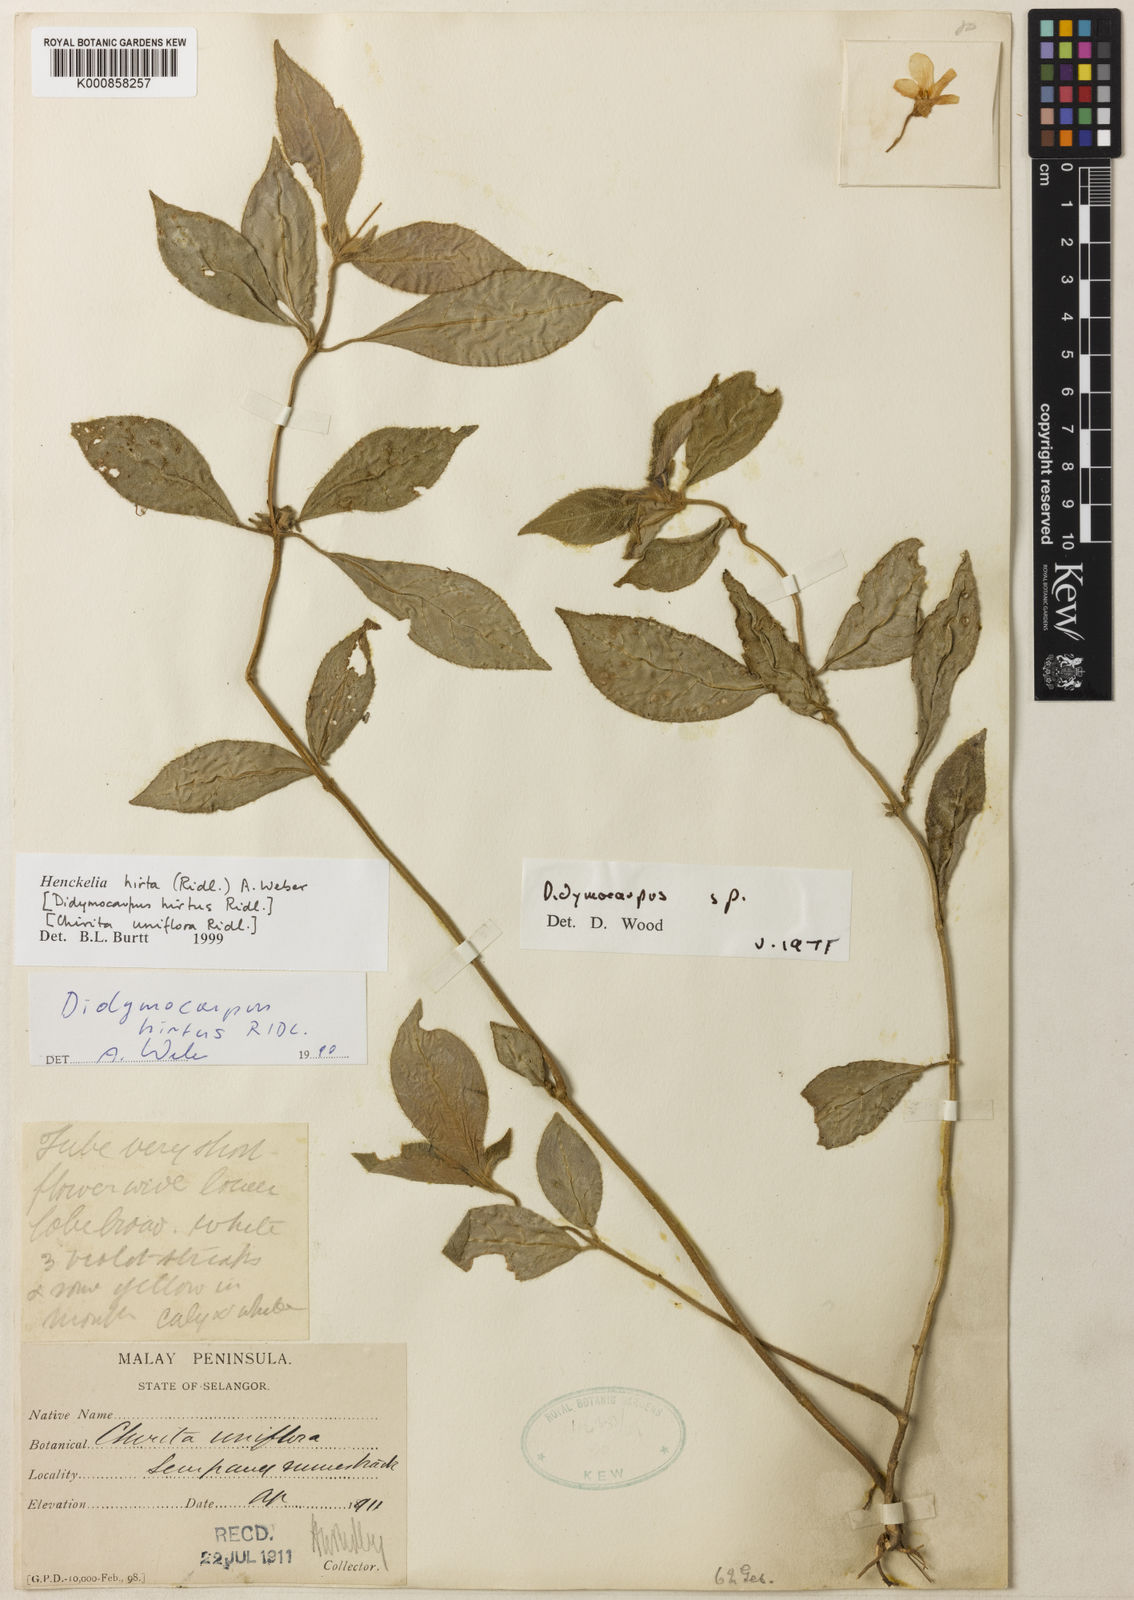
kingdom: Plantae
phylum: Tracheophyta
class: Magnoliopsida
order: Lamiales
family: Gesneriaceae
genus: Codonoboea
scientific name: Codonoboea hirta
